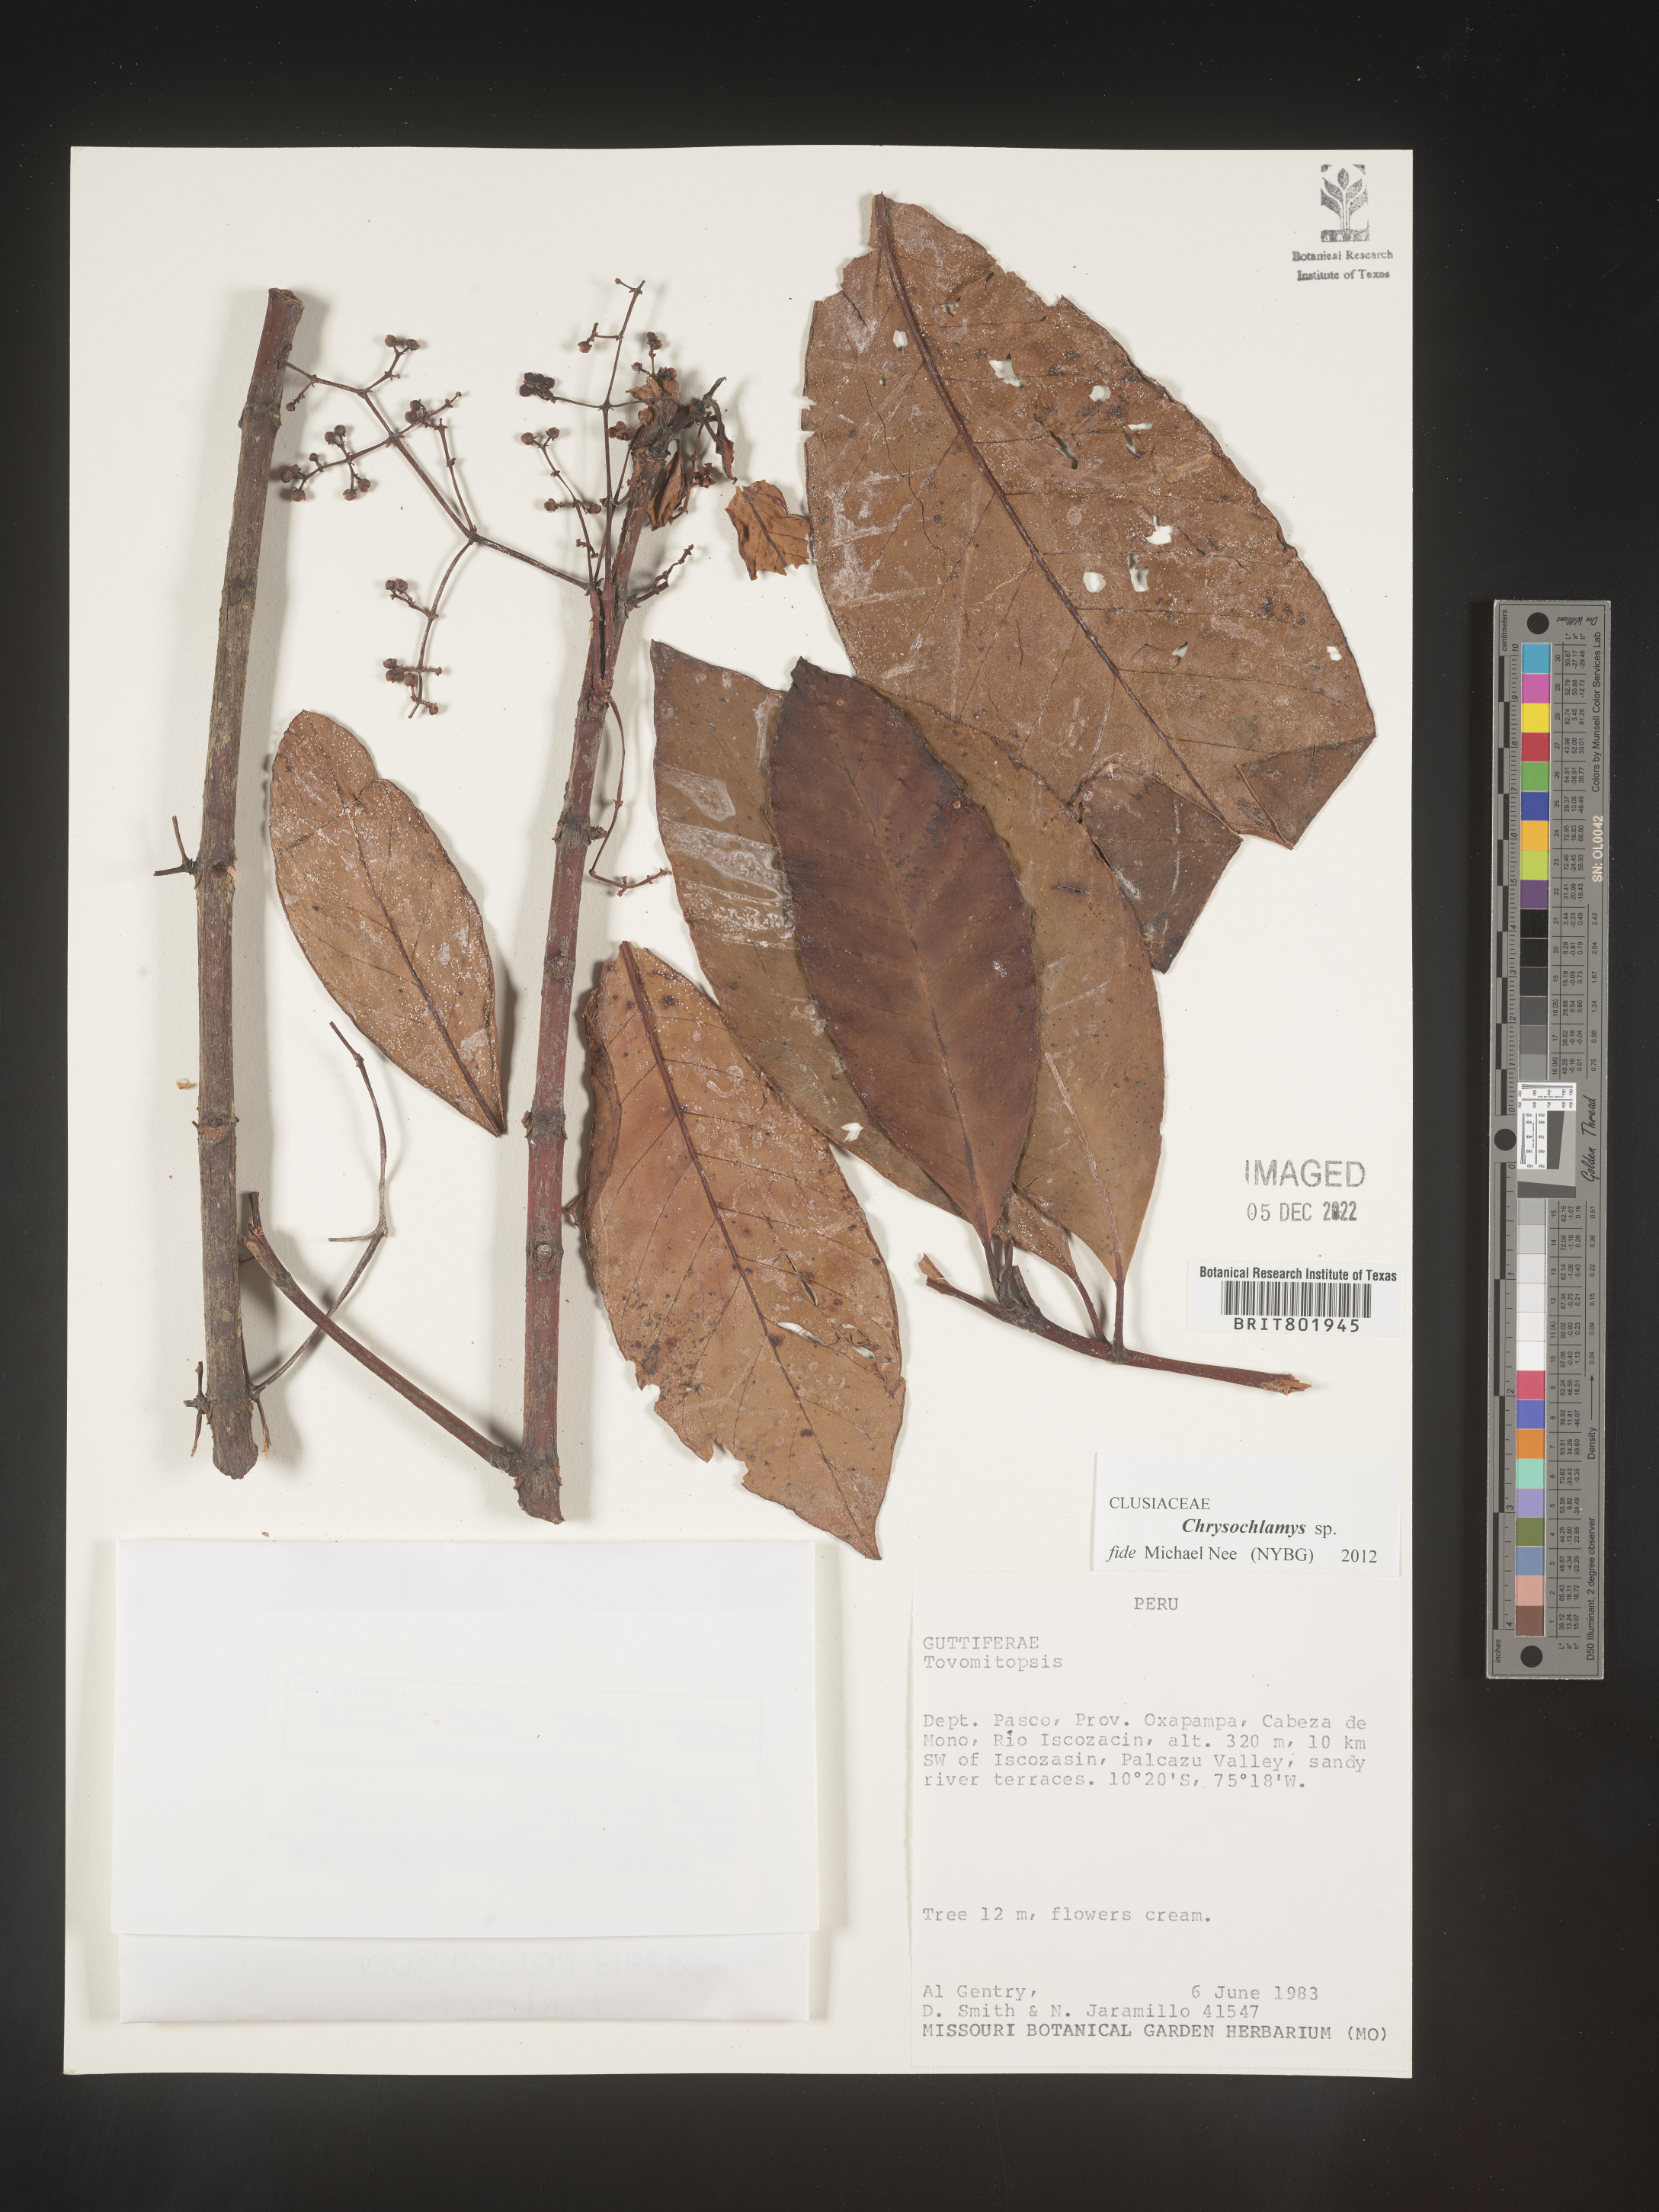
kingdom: Plantae
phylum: Tracheophyta
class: Magnoliopsida
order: Malpighiales
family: Clusiaceae
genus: Chrysochlamys
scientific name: Chrysochlamys
